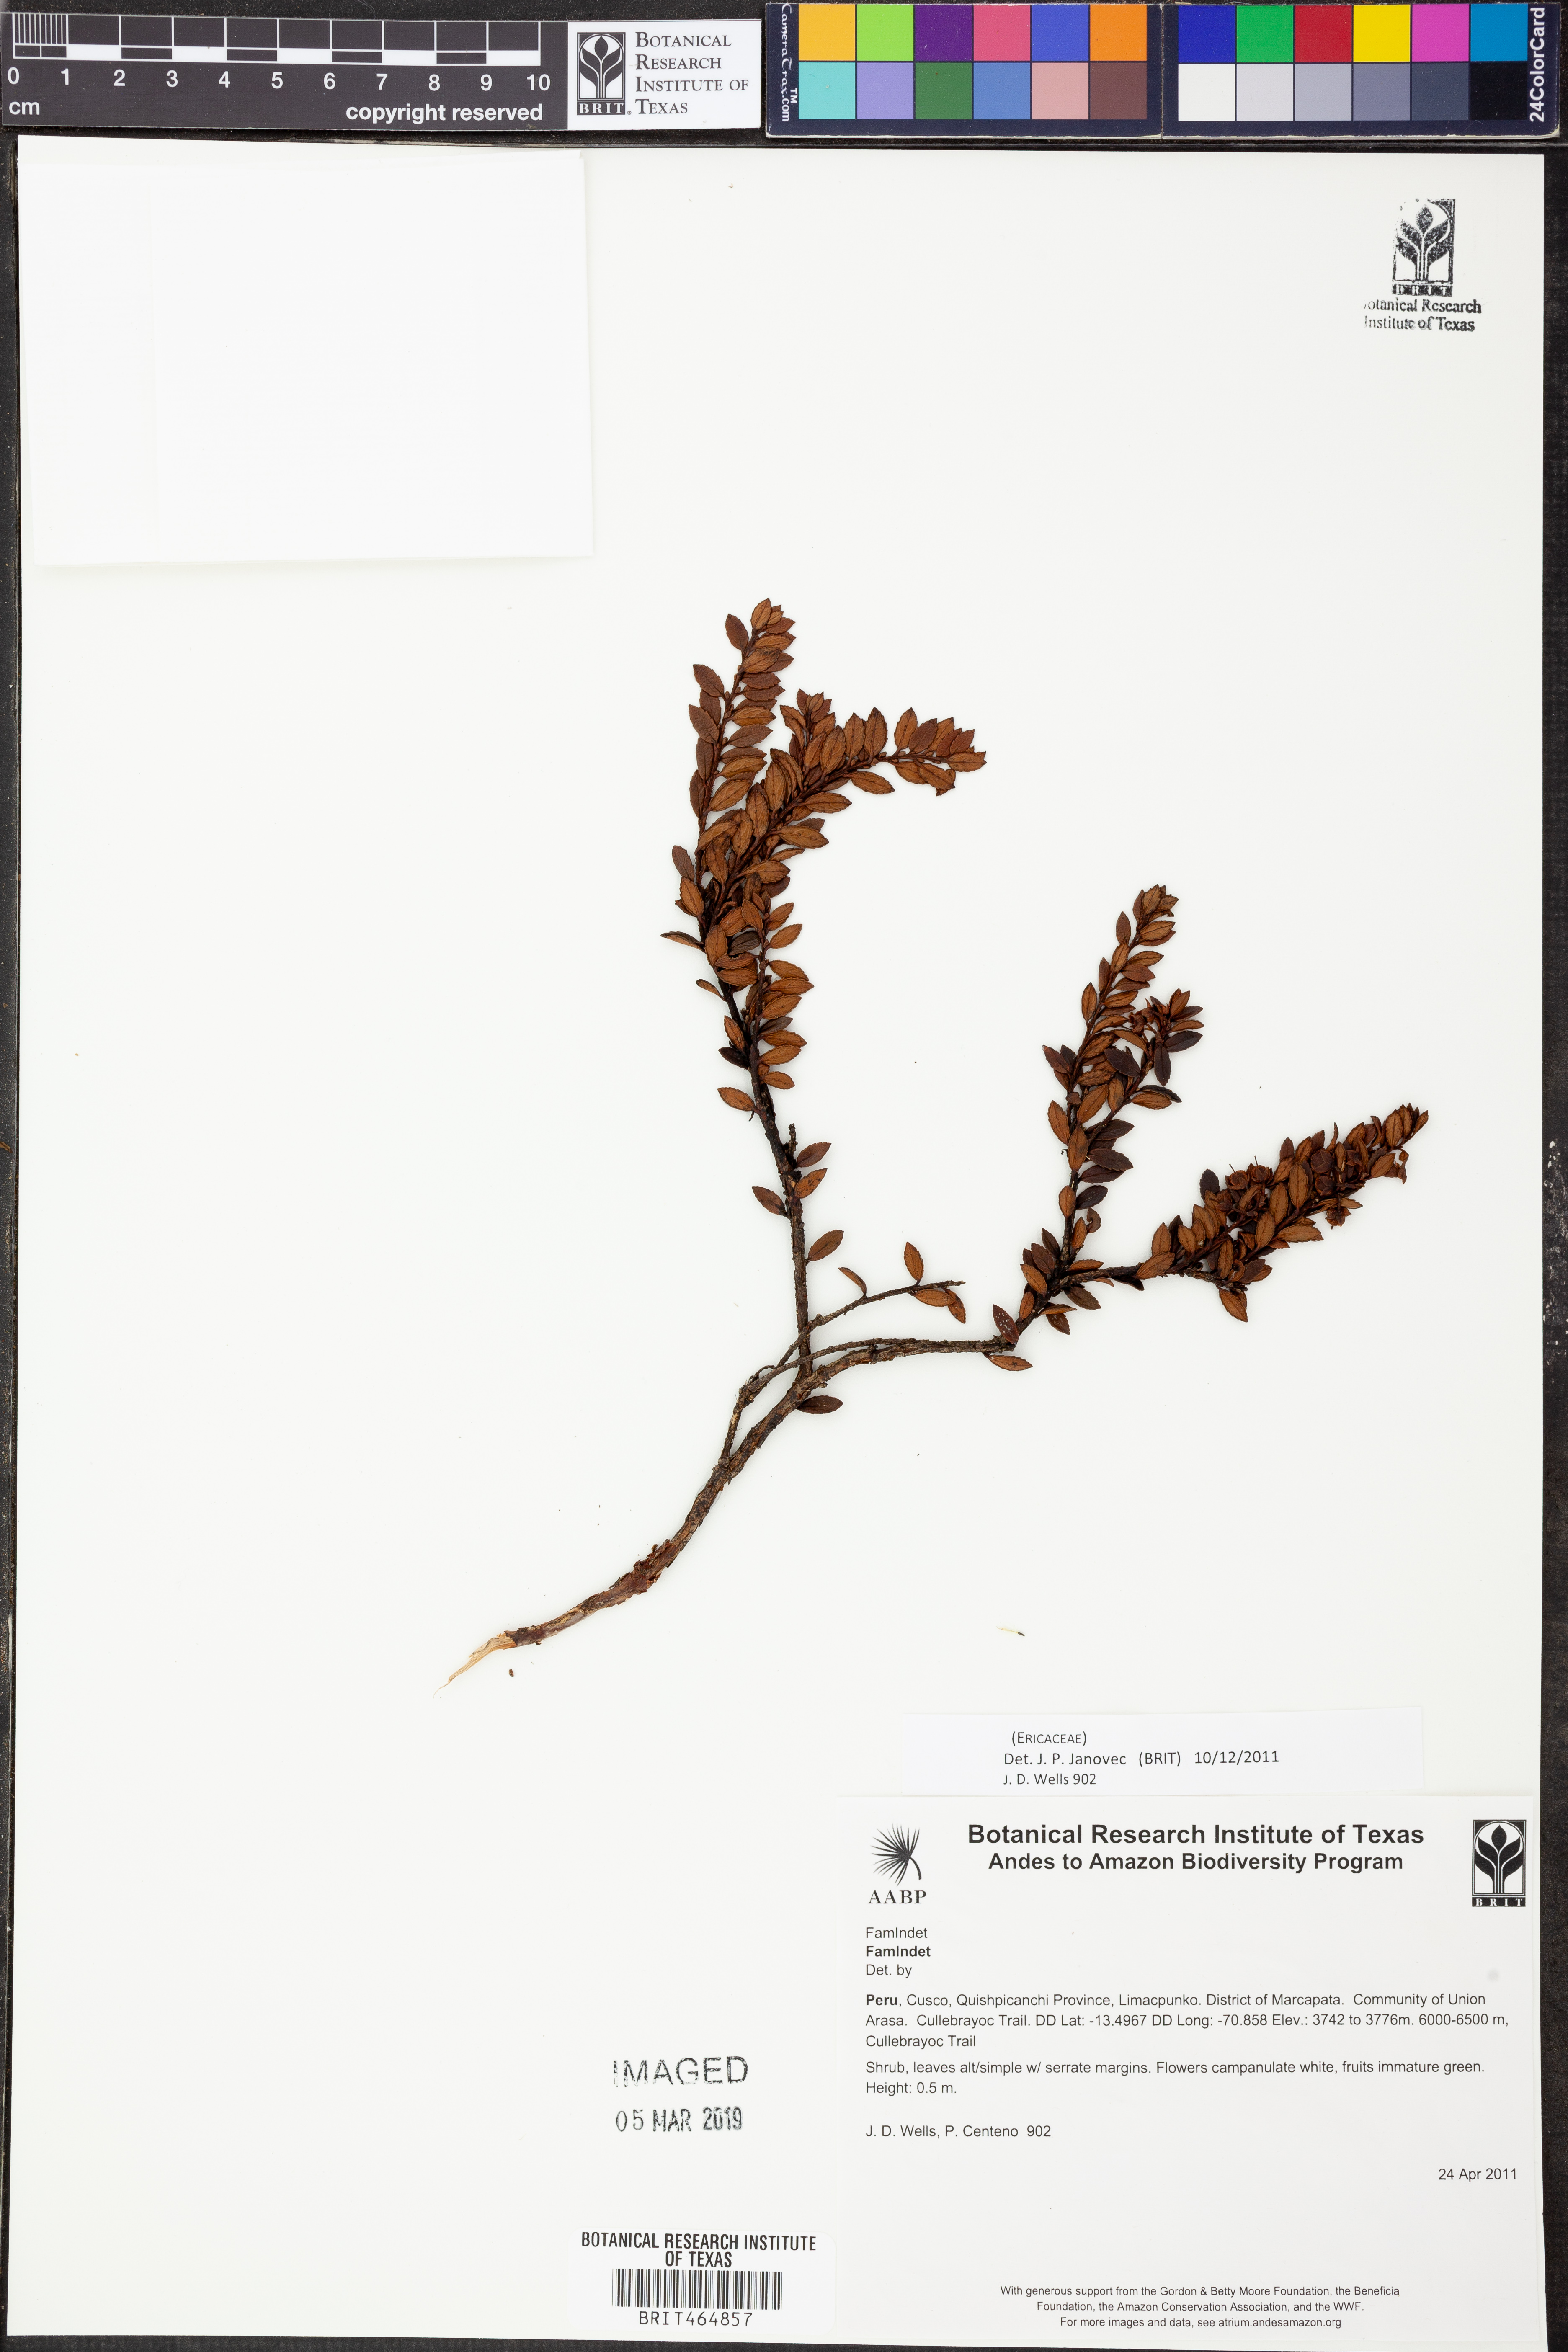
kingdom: Plantae
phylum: Tracheophyta
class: Magnoliopsida
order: Ericales
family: Ericaceae
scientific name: Ericaceae
